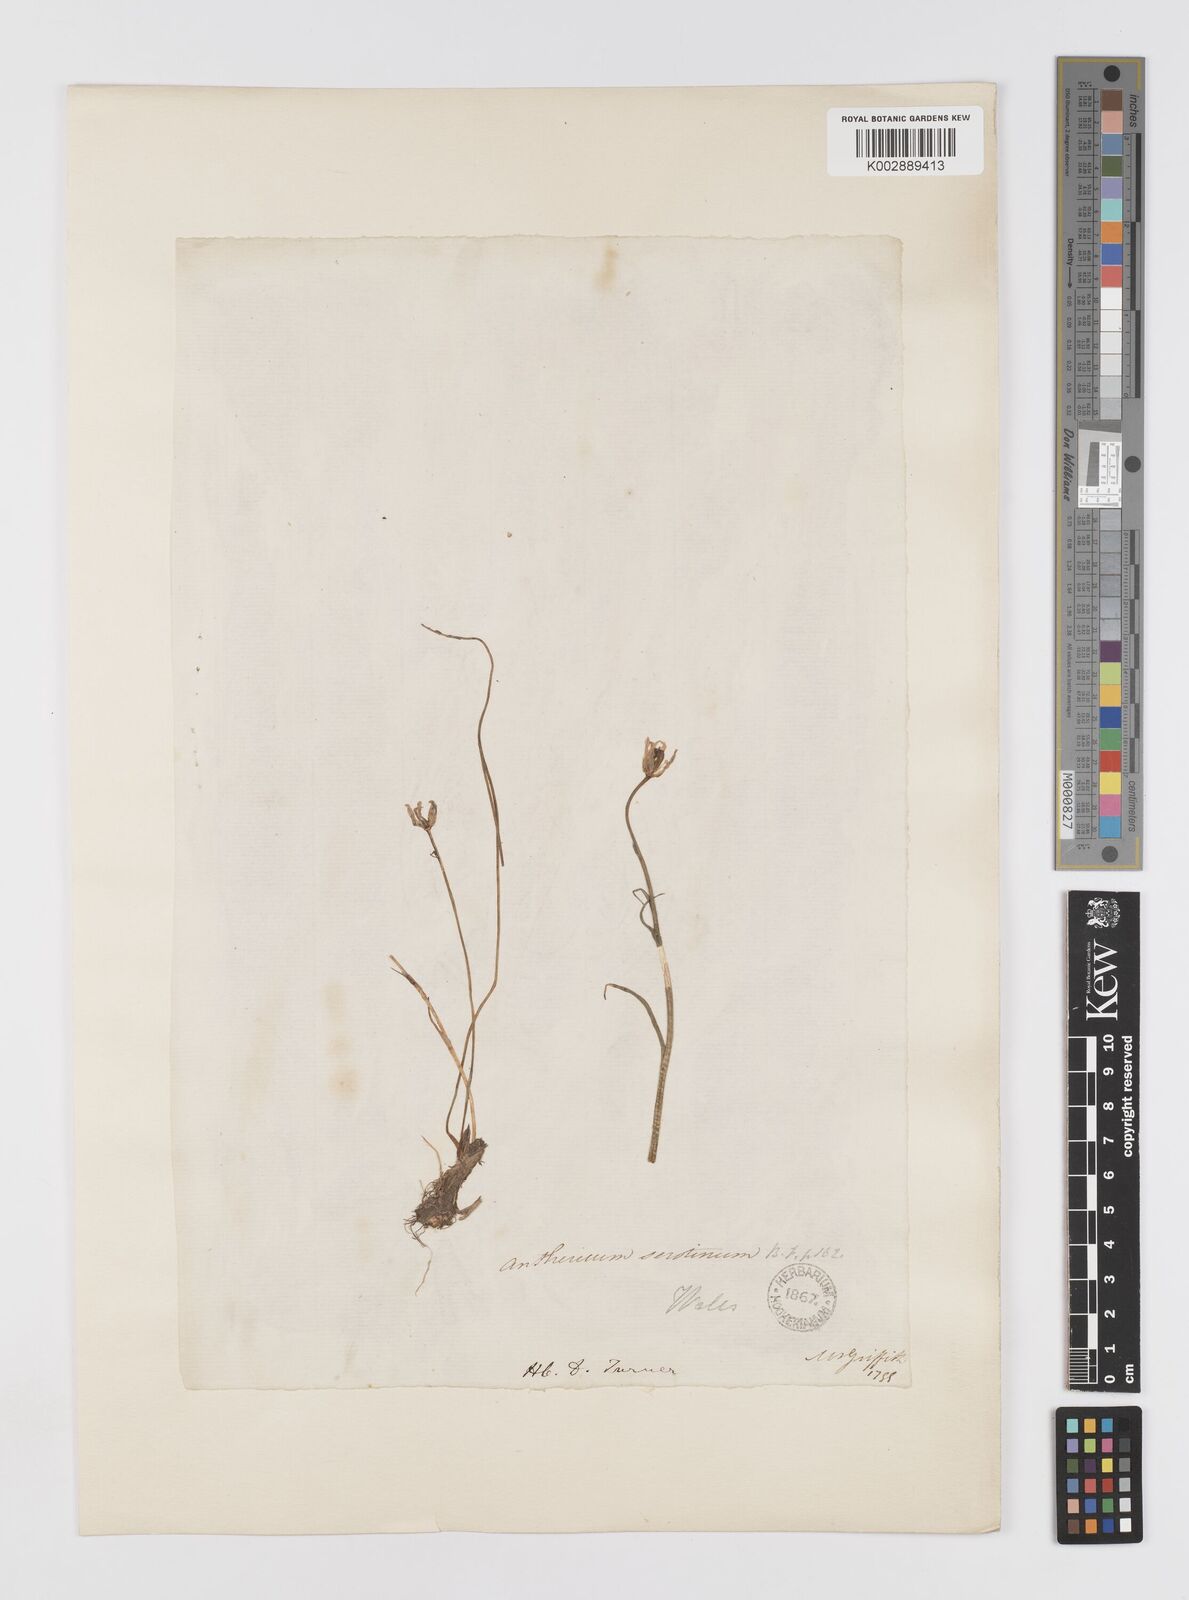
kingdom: Plantae
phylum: Tracheophyta
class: Liliopsida
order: Liliales
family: Liliaceae
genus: Gagea
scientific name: Gagea
